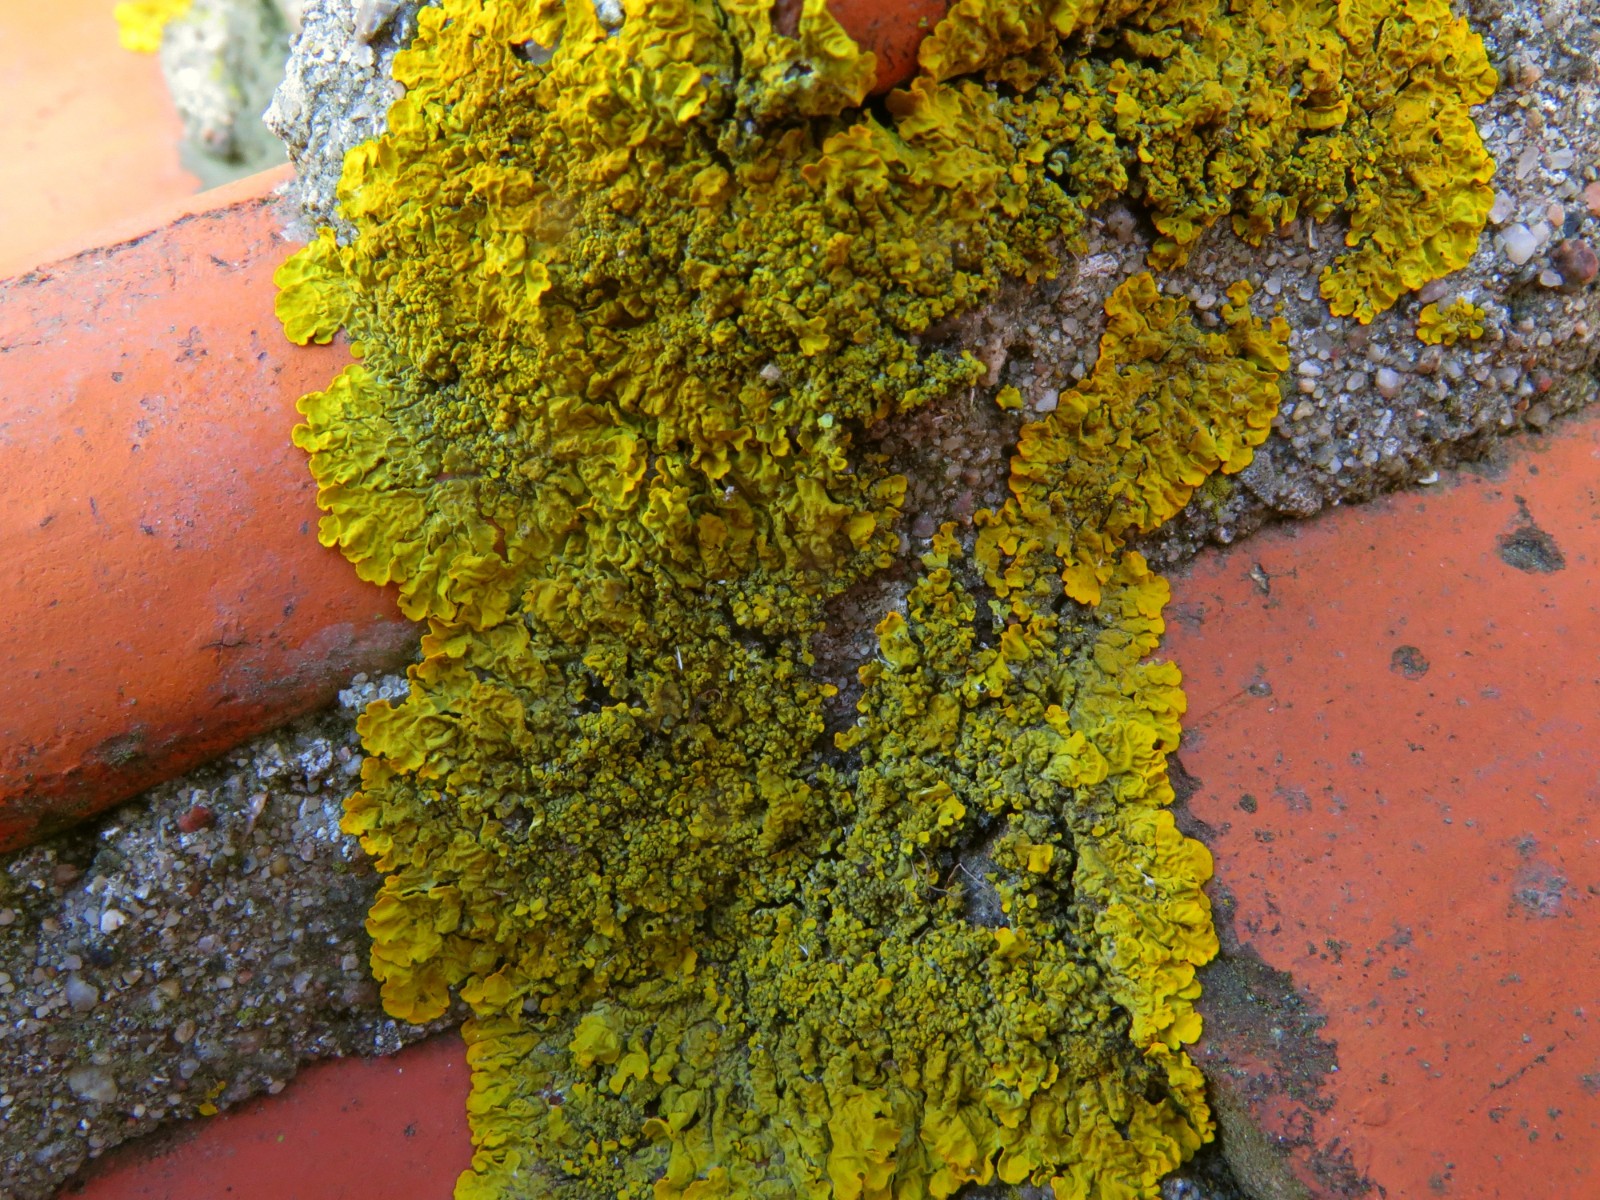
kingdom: Fungi
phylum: Ascomycota
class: Lecanoromycetes
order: Teloschistales
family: Teloschistaceae
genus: Xanthoria
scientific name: Xanthoria calcicola
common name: vortet væggelav
